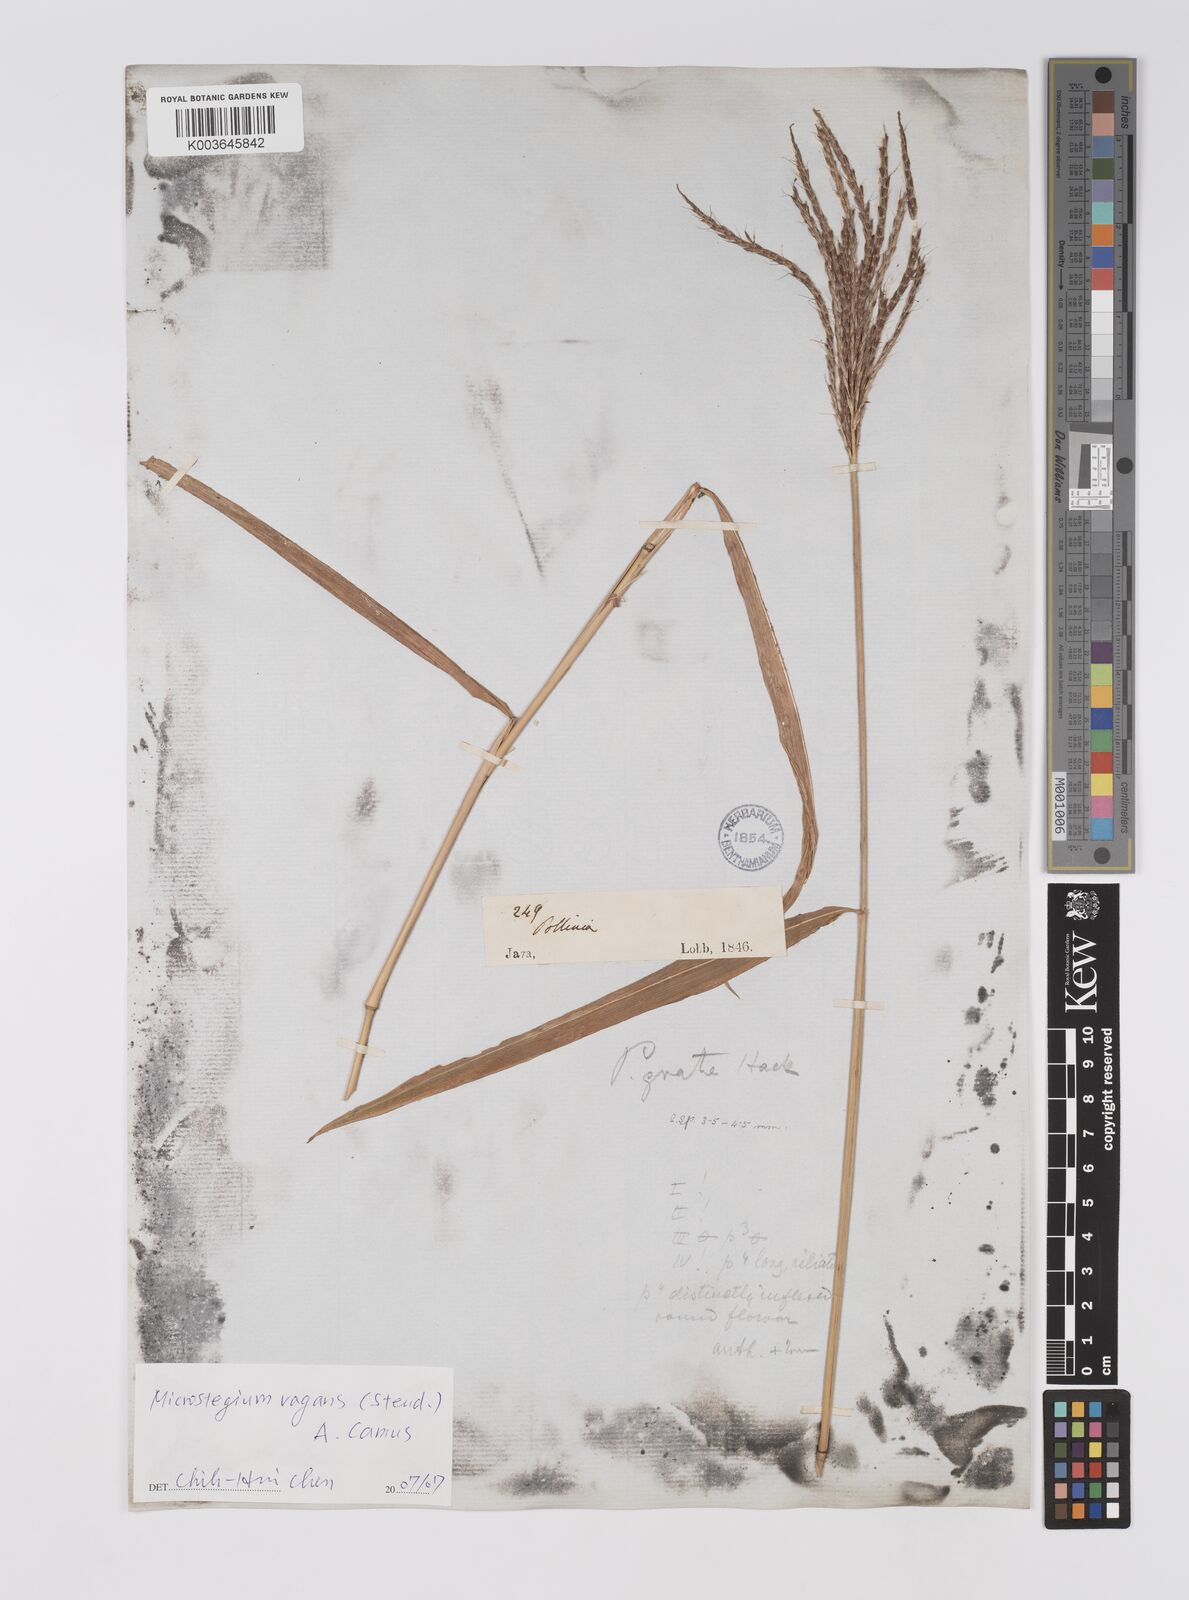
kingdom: Plantae
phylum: Tracheophyta
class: Liliopsida
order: Poales
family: Poaceae
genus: Microstegium
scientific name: Microstegium fasciculatum
